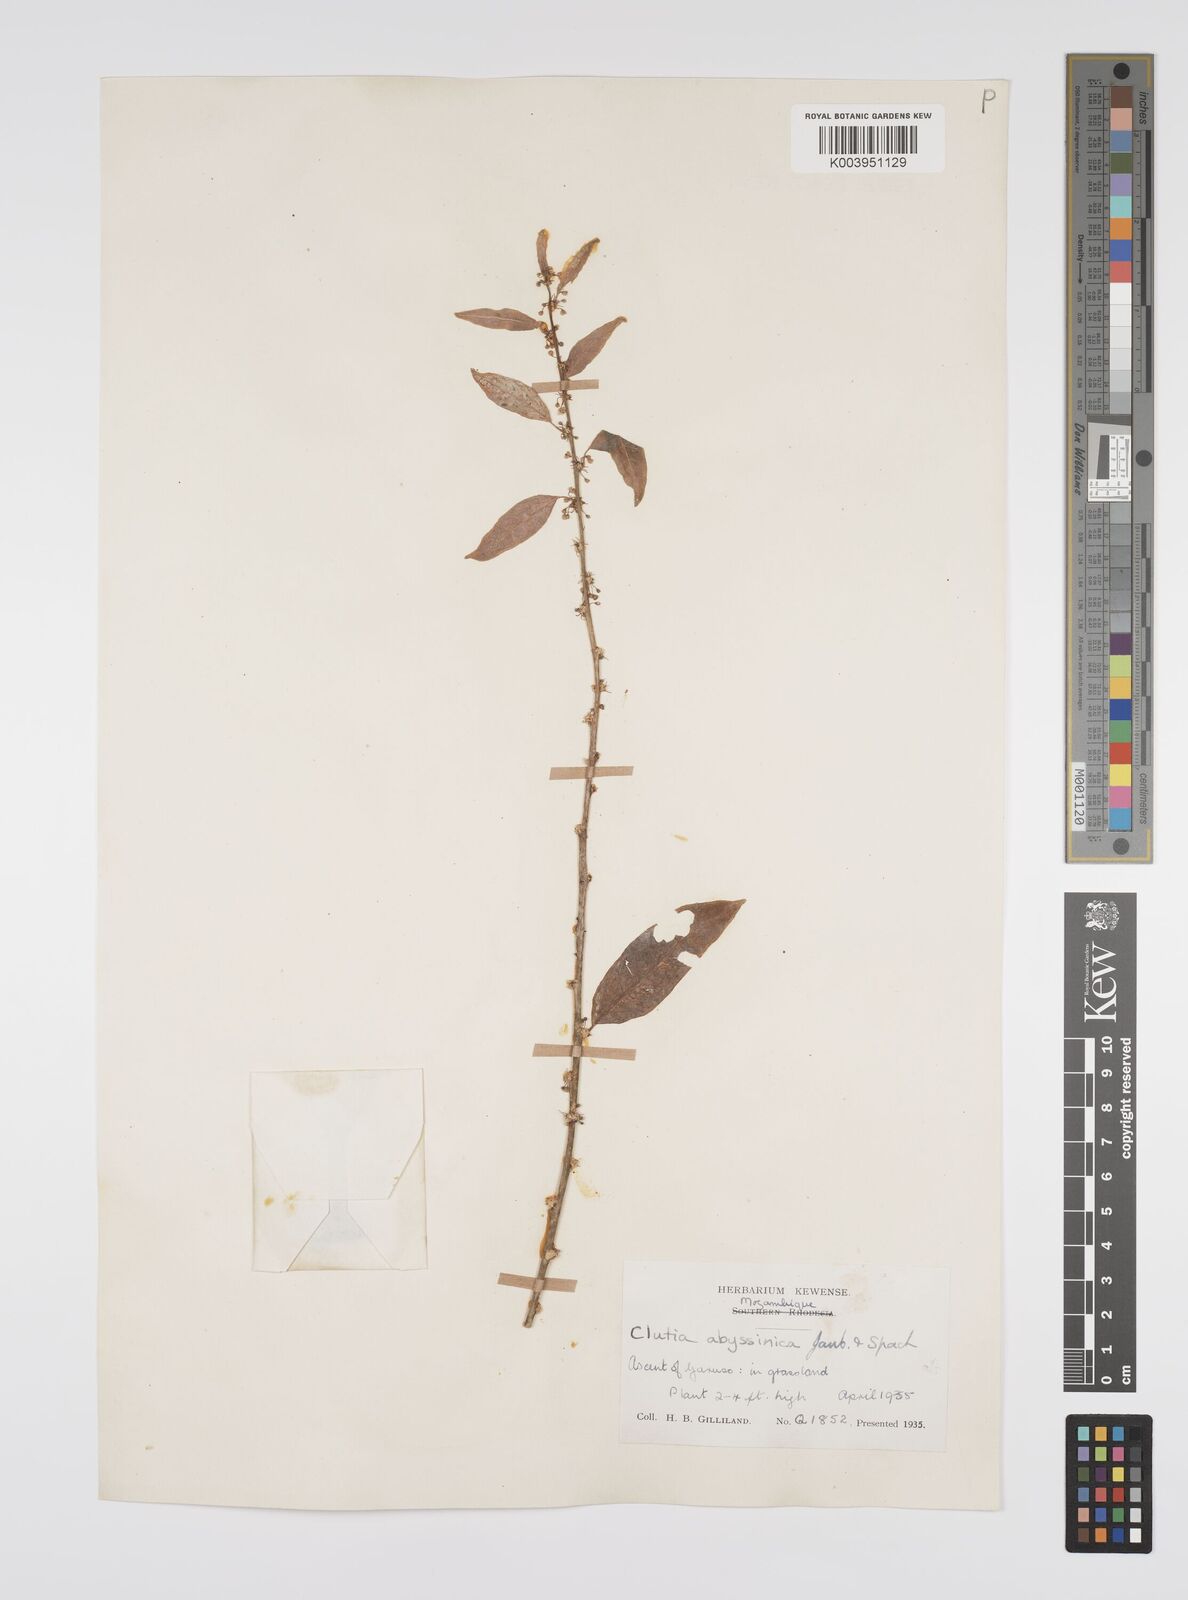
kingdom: Plantae
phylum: Tracheophyta
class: Magnoliopsida
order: Malpighiales
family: Peraceae
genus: Clutia
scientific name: Clutia abyssinica
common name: Large lightning bush
